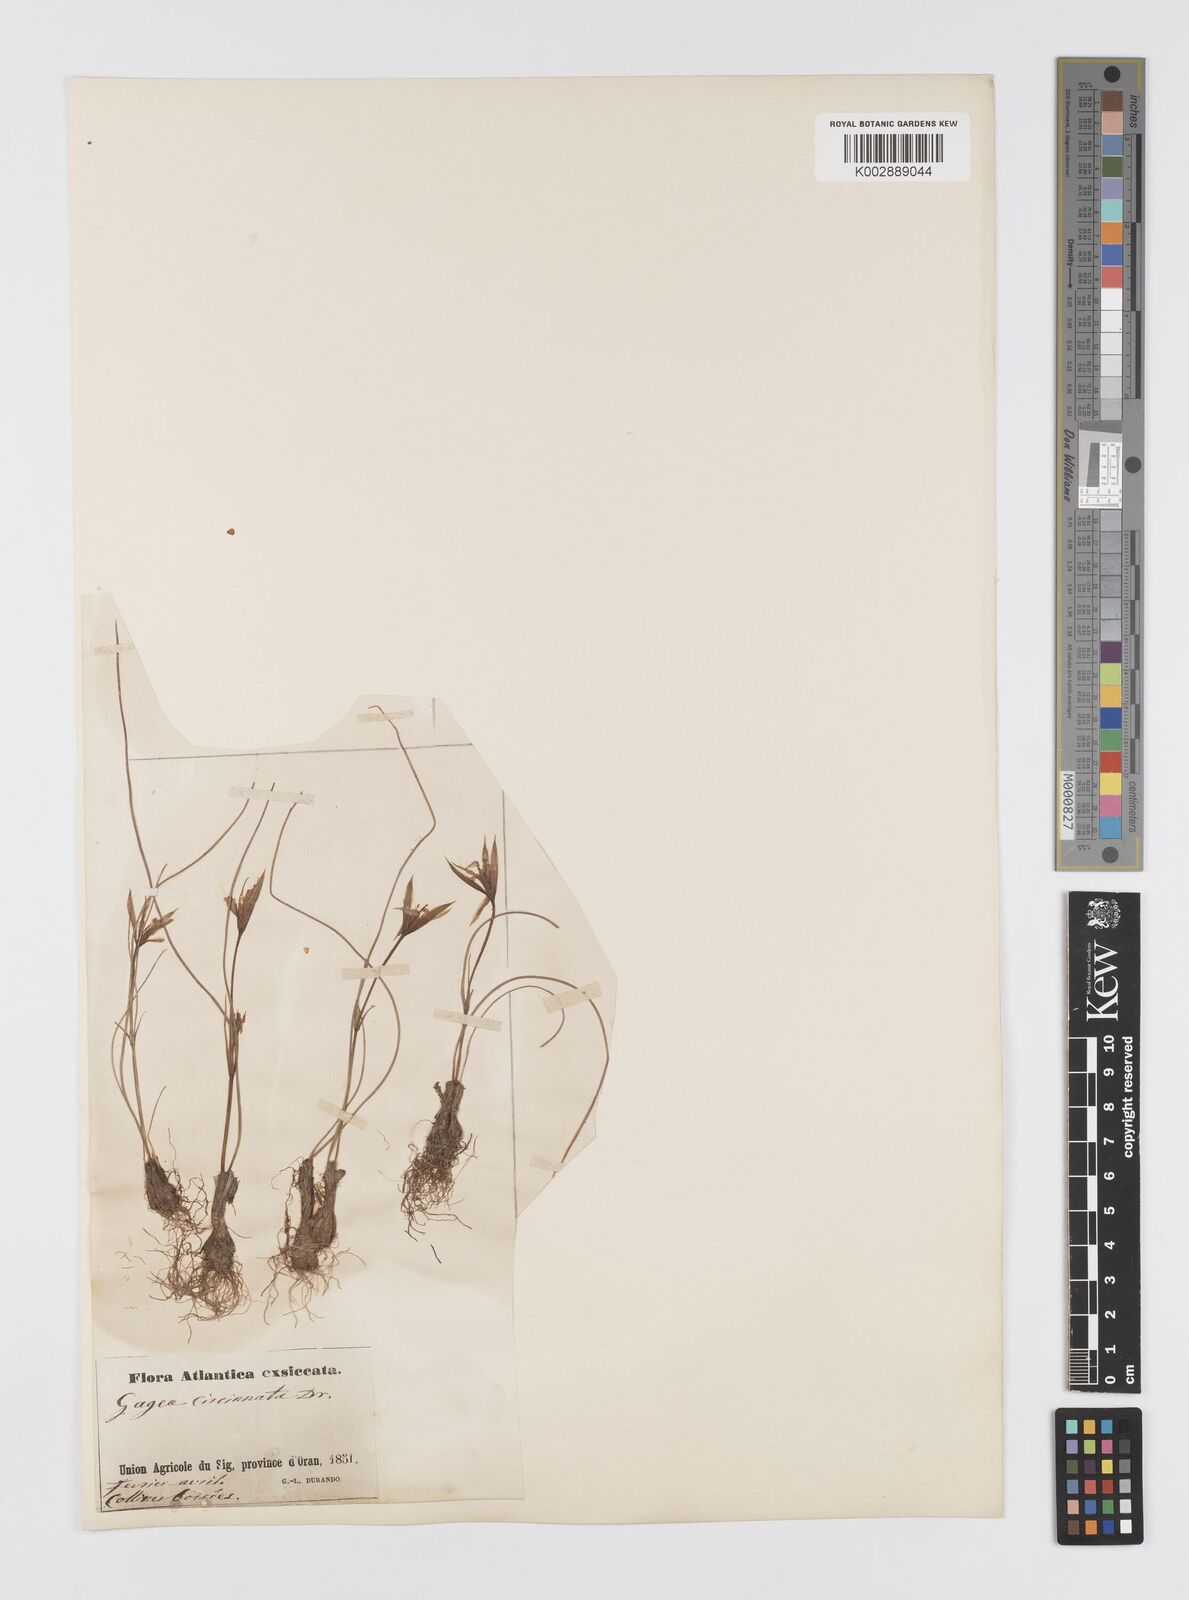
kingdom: Plantae
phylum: Tracheophyta
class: Liliopsida
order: Liliales
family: Liliaceae
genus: Gagea
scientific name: Gagea reticulata
